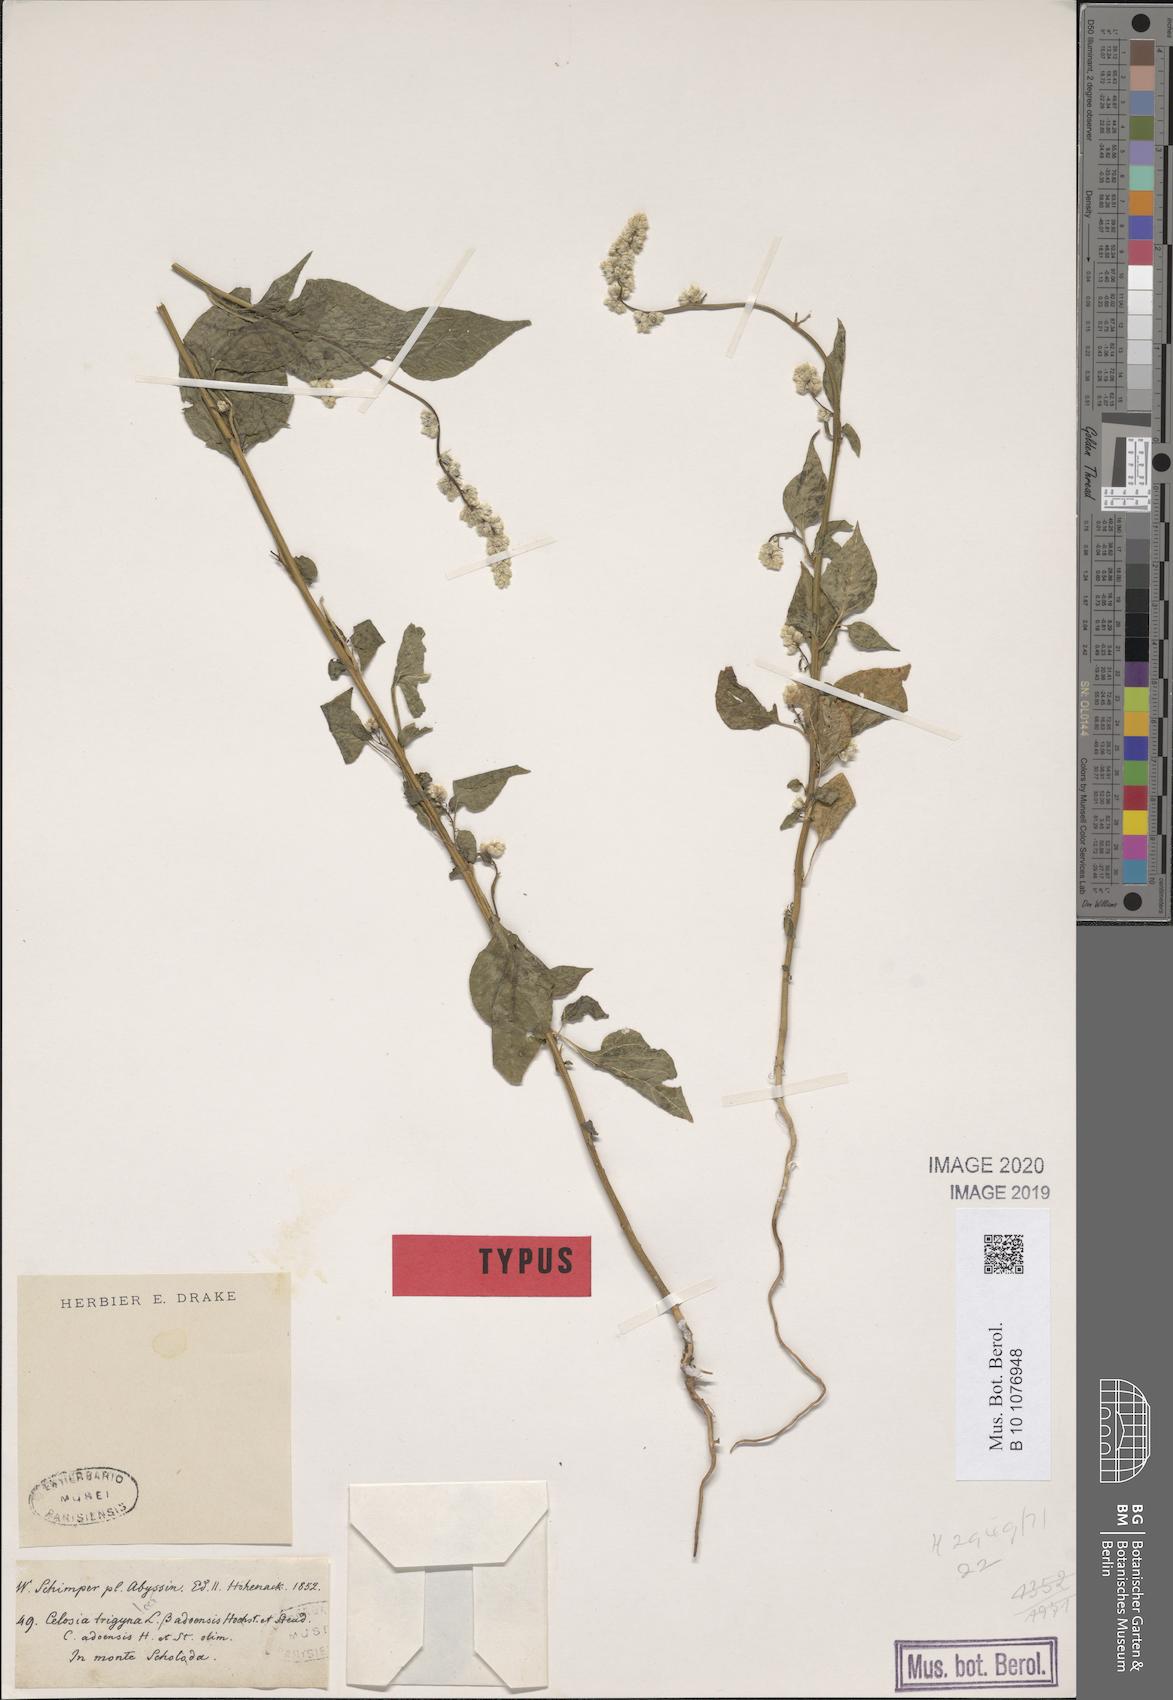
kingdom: Plantae
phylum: Tracheophyta
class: Magnoliopsida
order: Caryophyllales
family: Amaranthaceae
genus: Celosia
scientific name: Celosia trigyna
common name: Woolflower
